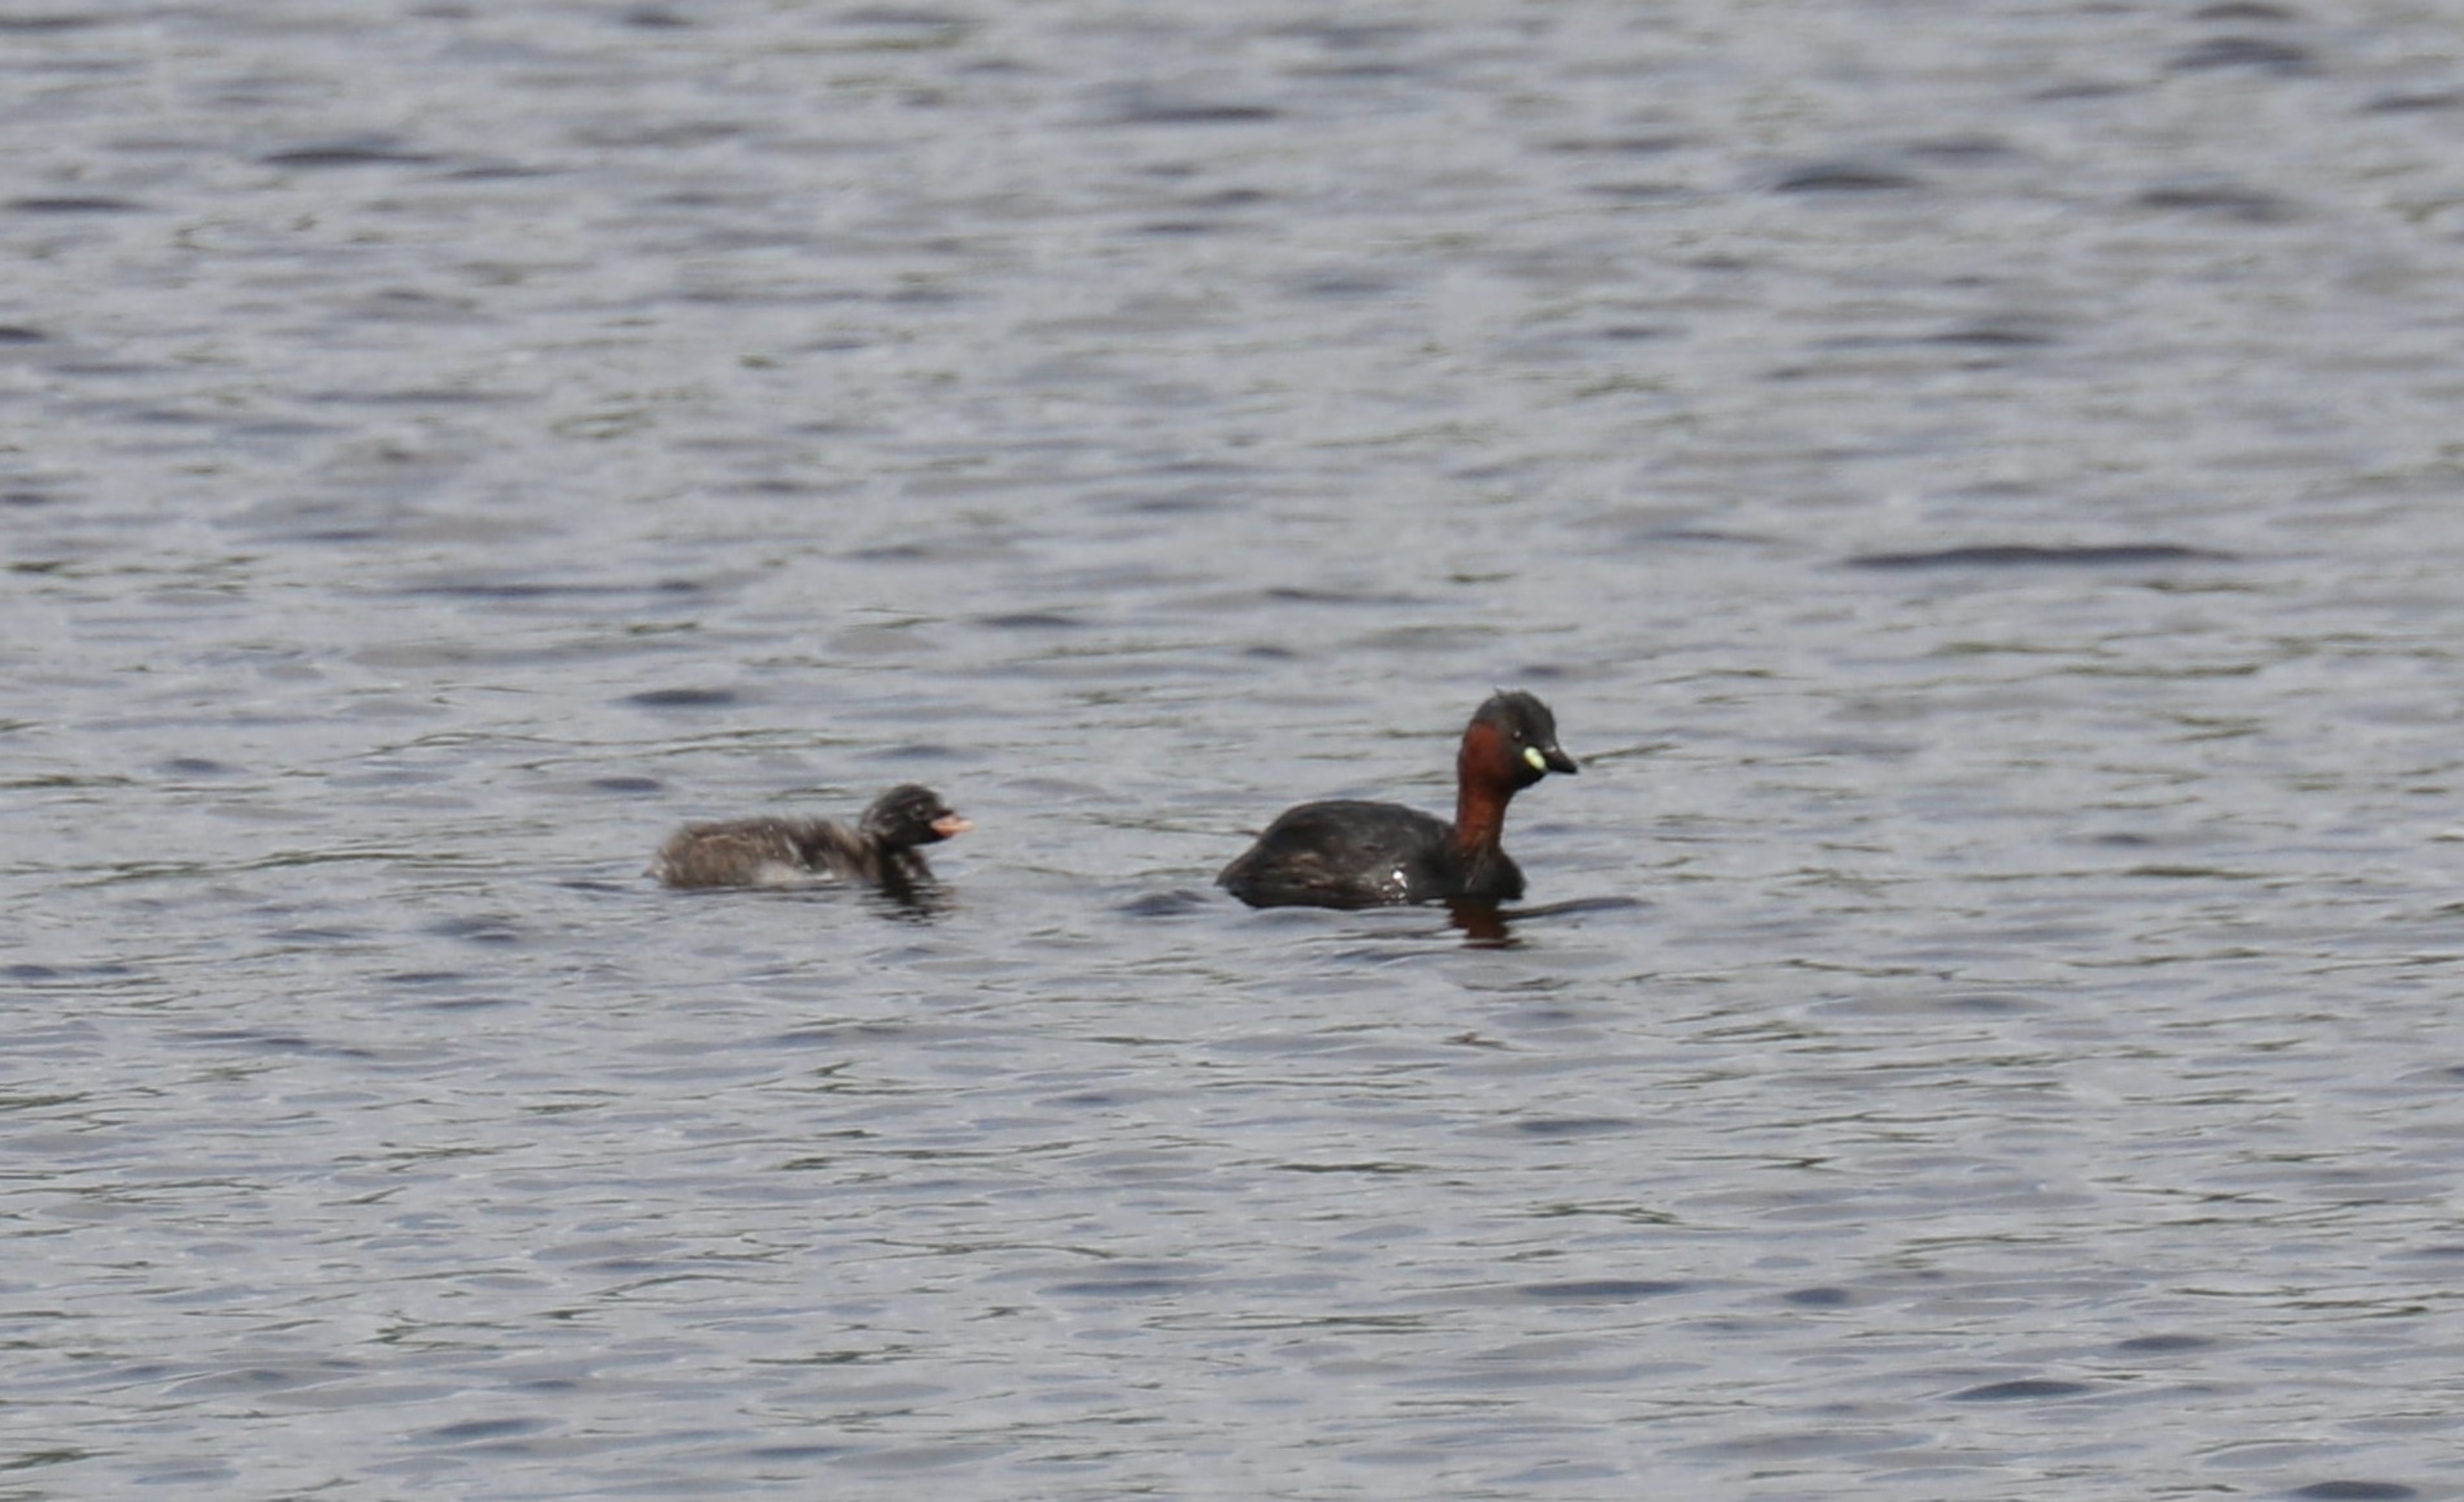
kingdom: Animalia
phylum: Chordata
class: Aves
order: Podicipediformes
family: Podicipedidae
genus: Tachybaptus
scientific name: Tachybaptus ruficollis
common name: Lille lappedykker
